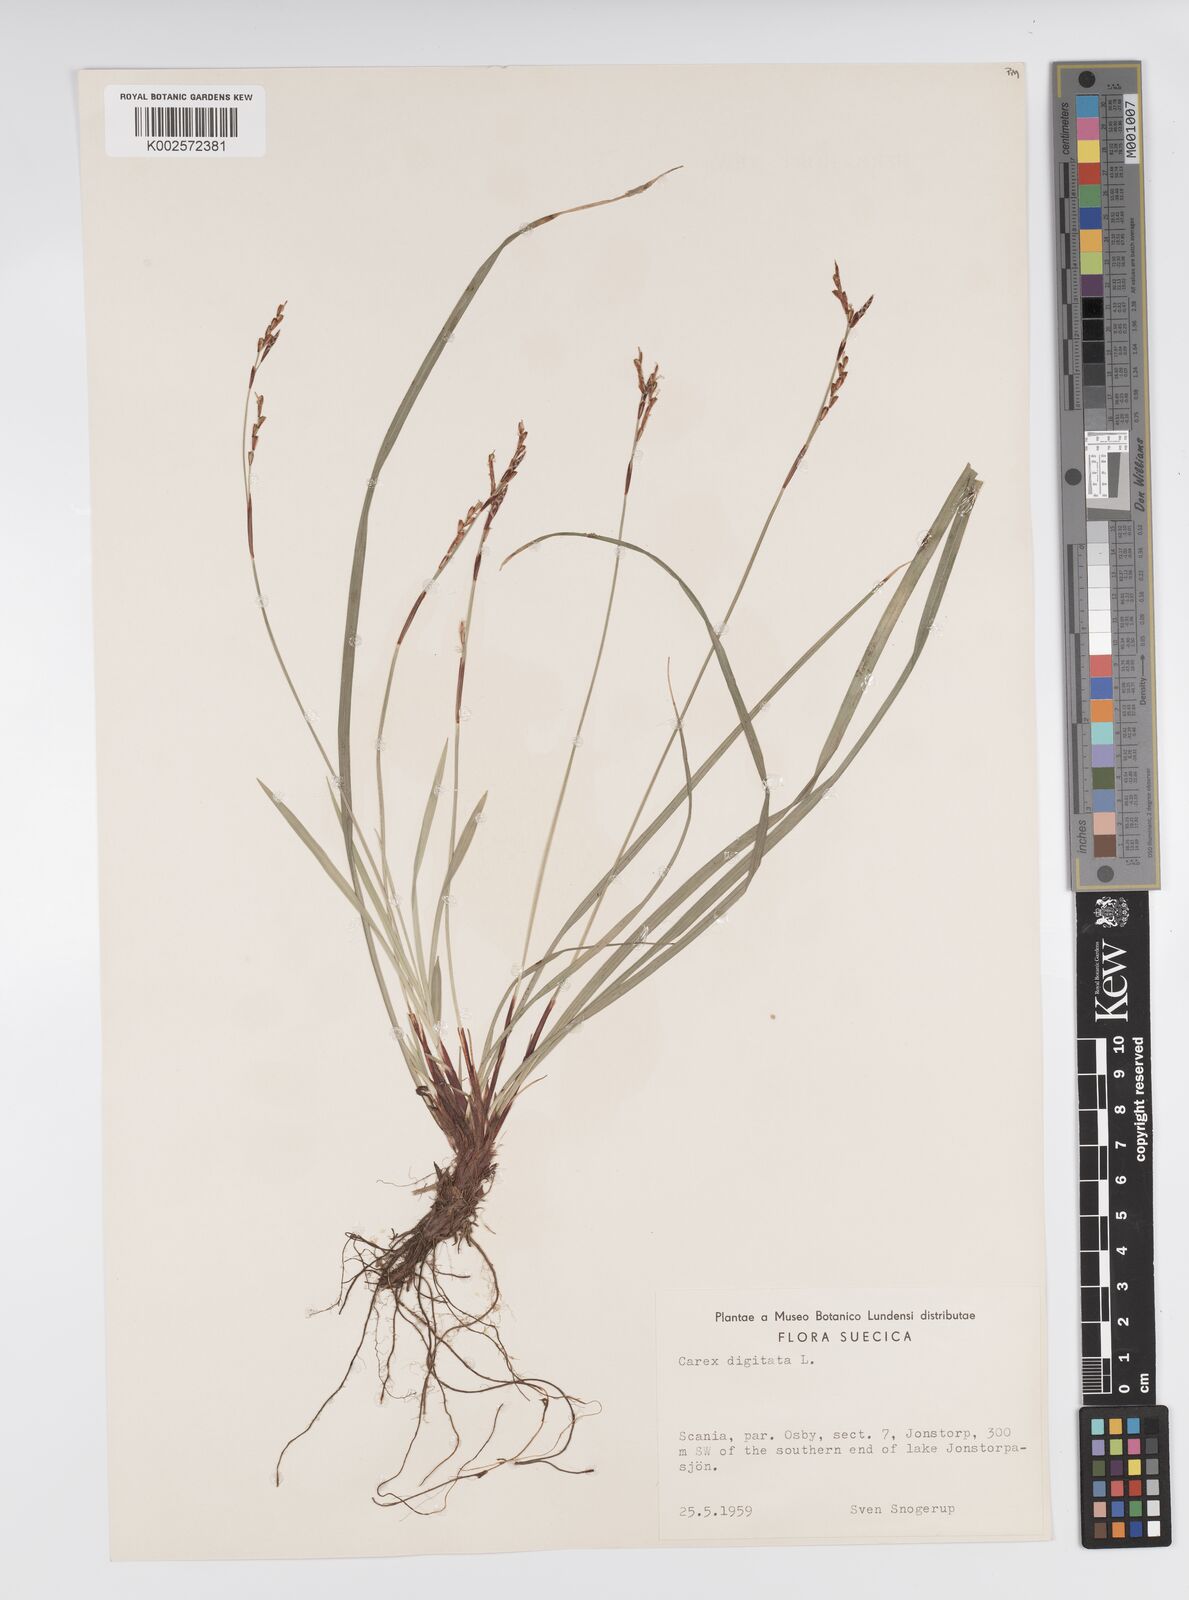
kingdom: Plantae
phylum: Tracheophyta
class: Liliopsida
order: Poales
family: Cyperaceae
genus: Carex
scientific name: Carex digitata
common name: Fingered sedge
